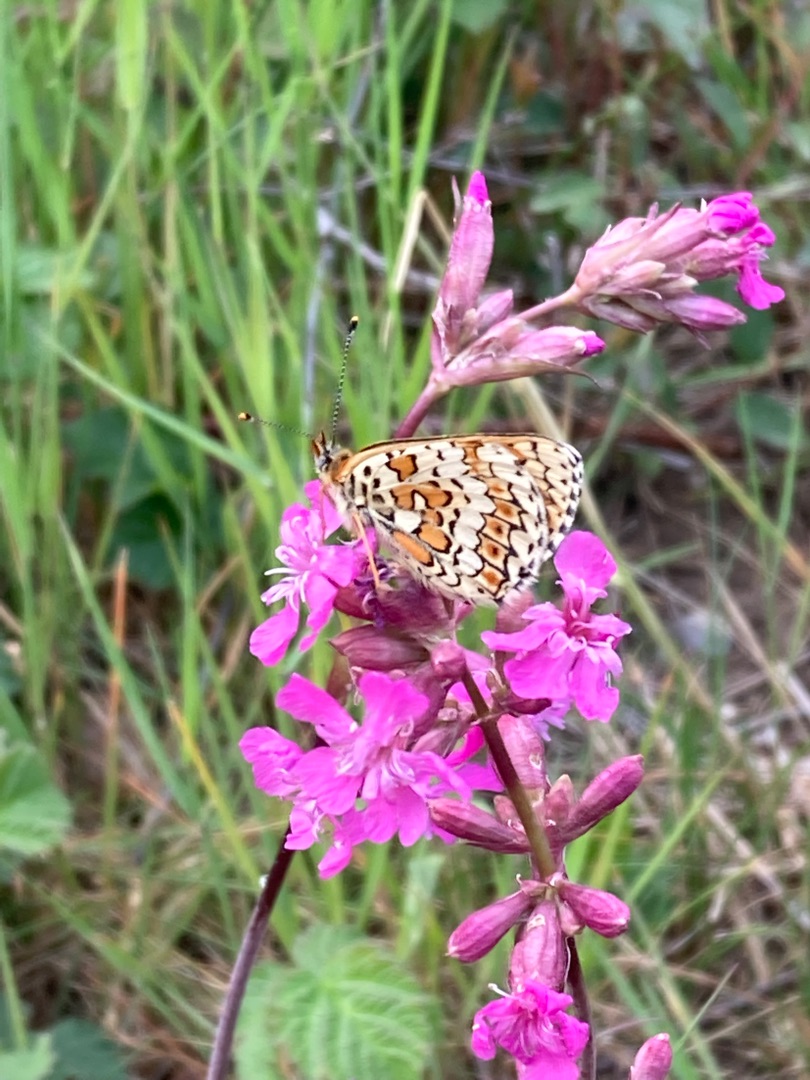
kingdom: Animalia
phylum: Arthropoda
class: Insecta
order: Lepidoptera
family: Nymphalidae
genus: Melitaea
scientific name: Melitaea cinxia
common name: Okkergul pletvinge
